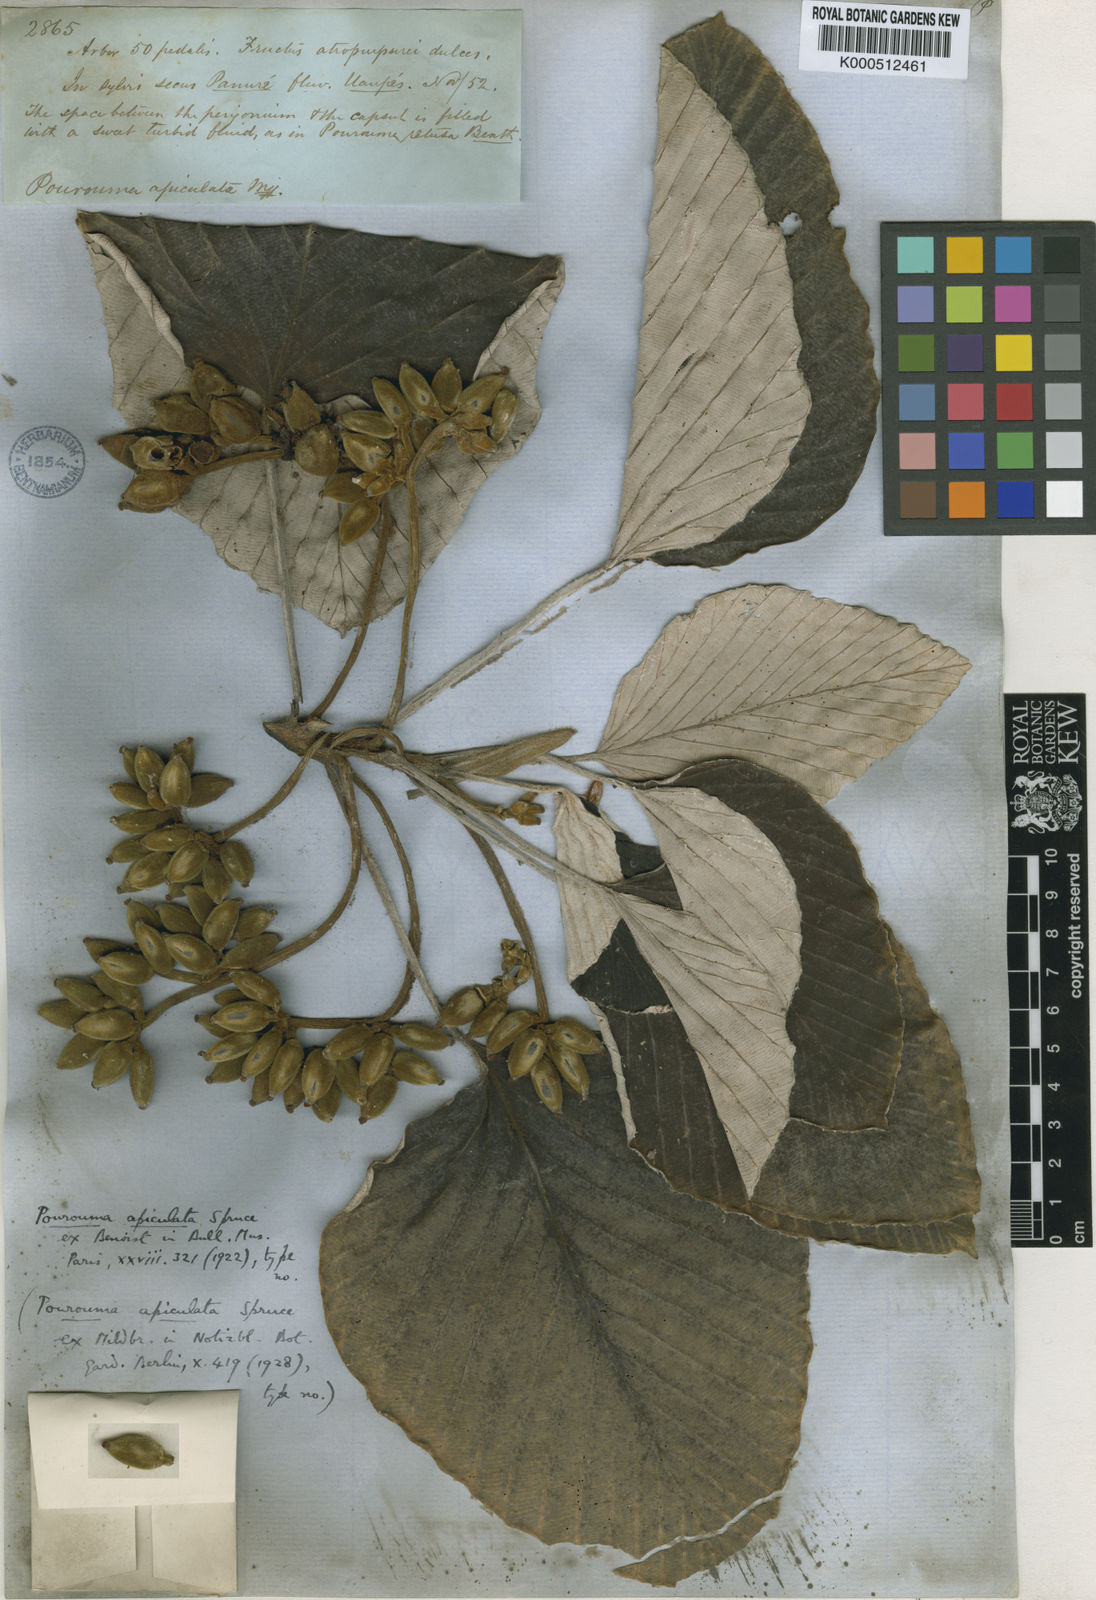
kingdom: Plantae
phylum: Tracheophyta
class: Magnoliopsida
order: Rosales
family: Urticaceae
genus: Pourouma
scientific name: Pourouma tomentosa
